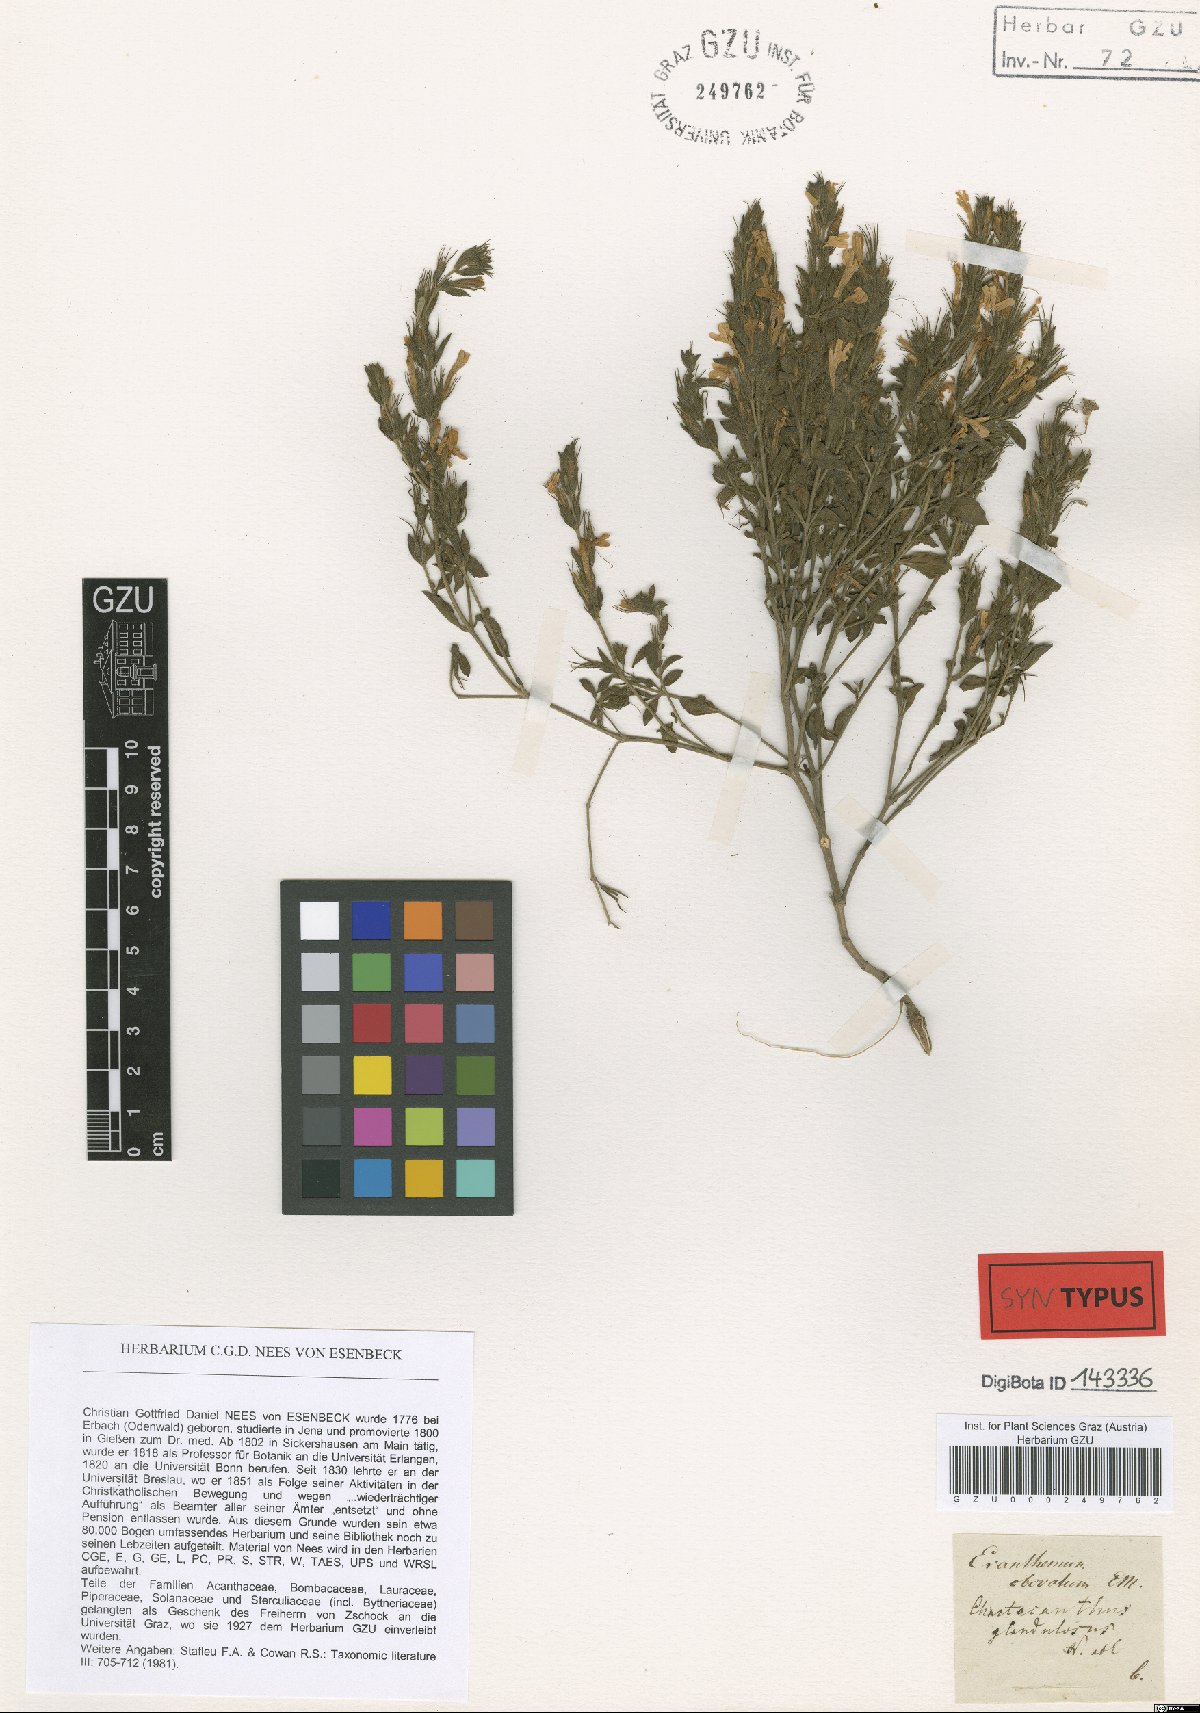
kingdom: Plantae
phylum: Tracheophyta
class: Magnoliopsida
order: Lamiales
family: Acanthaceae
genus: Dyschoriste
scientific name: Dyschoriste setigera
